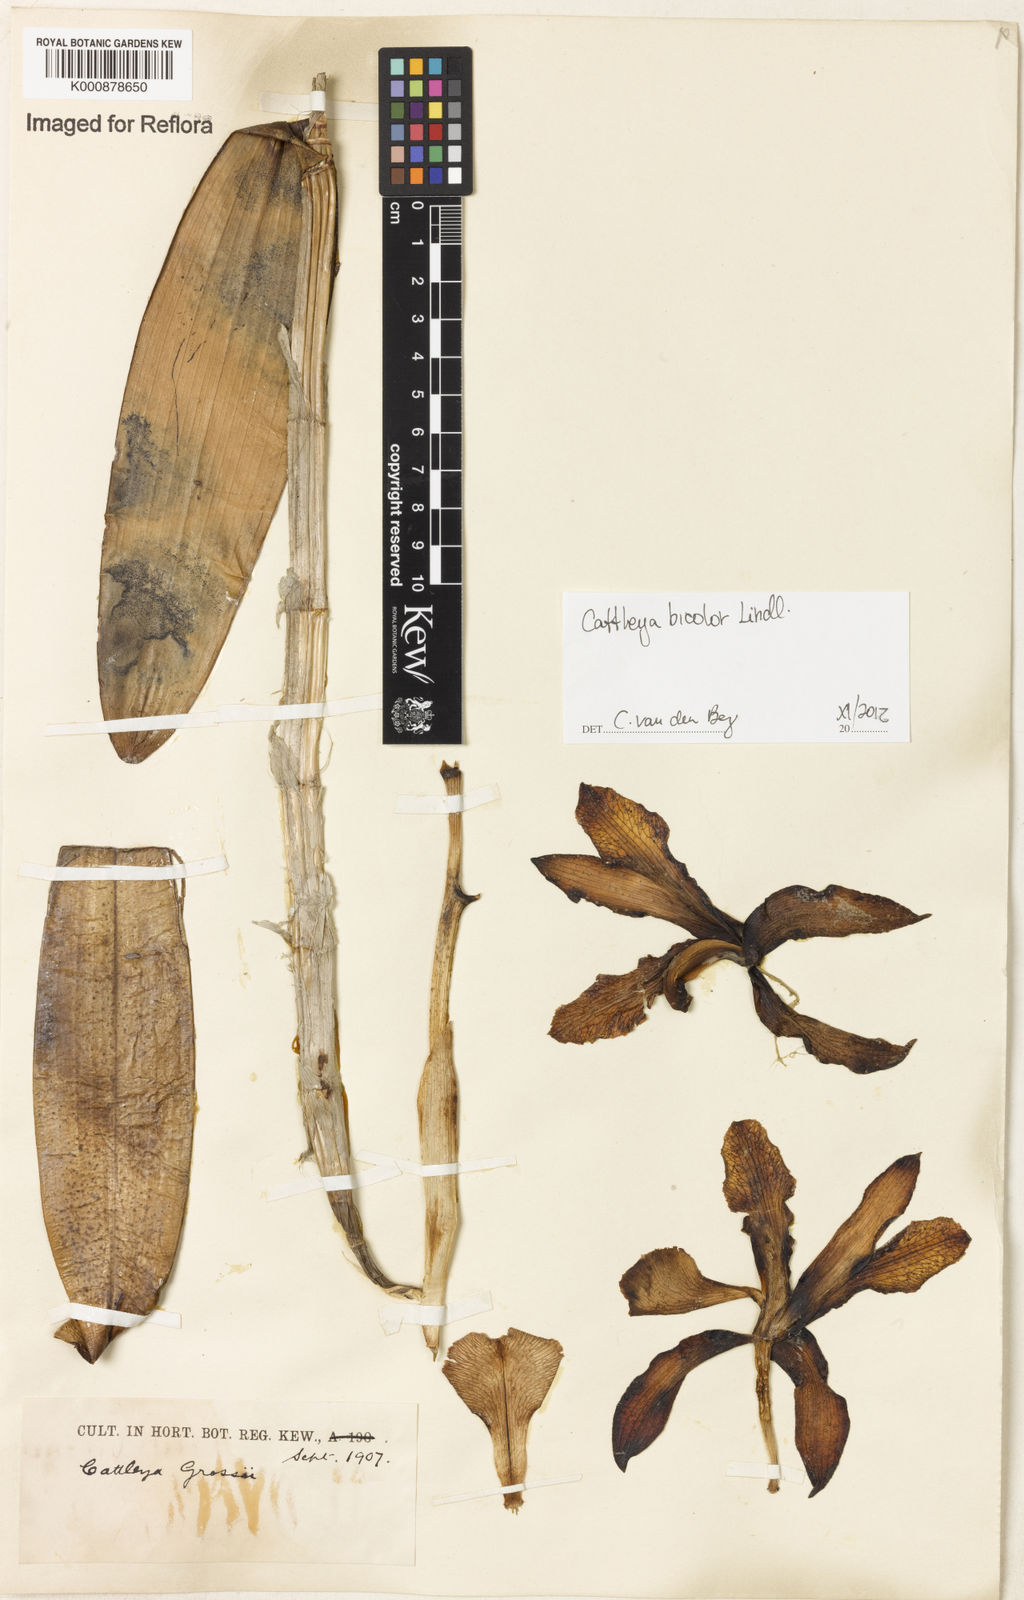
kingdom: Plantae
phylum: Tracheophyta
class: Liliopsida
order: Asparagales
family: Orchidaceae
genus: Cattleya
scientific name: Cattleya bicolor
